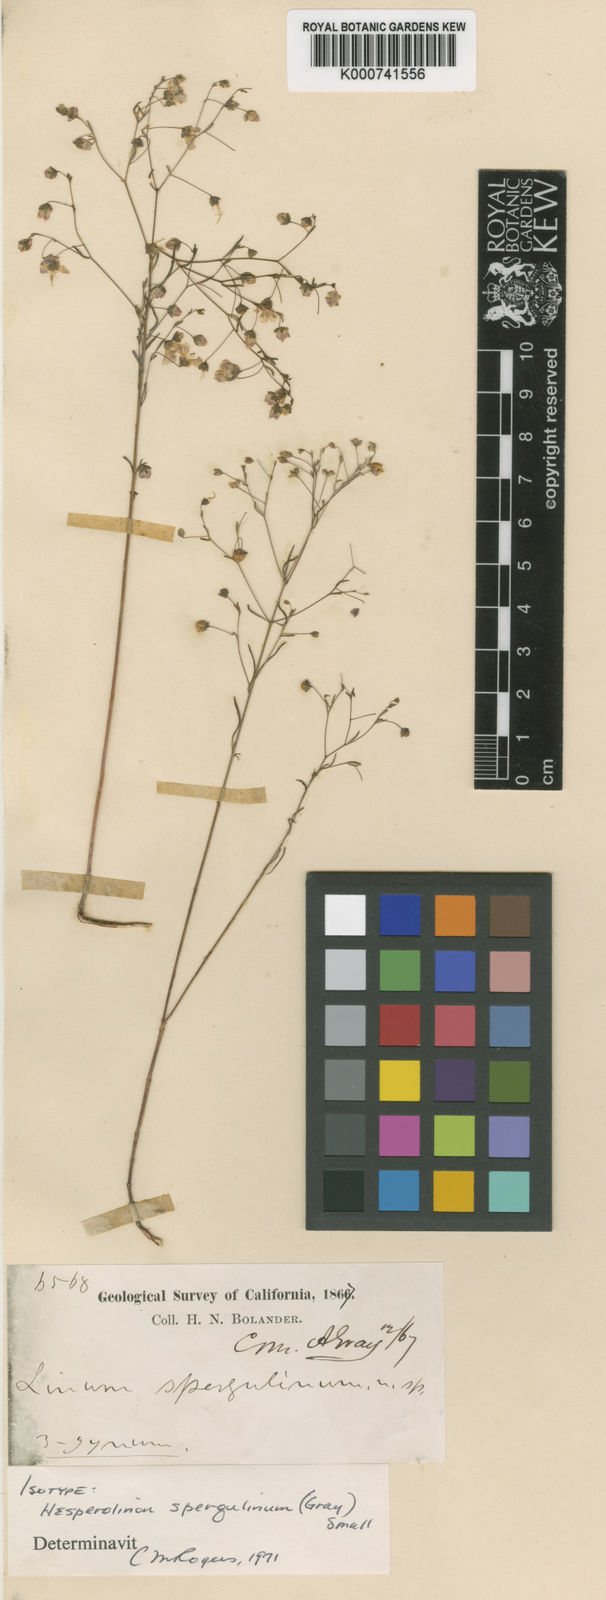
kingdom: Plantae
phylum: Tracheophyta
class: Magnoliopsida
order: Malpighiales
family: Linaceae
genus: Hesperolinon
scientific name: Hesperolinon spergulinum
